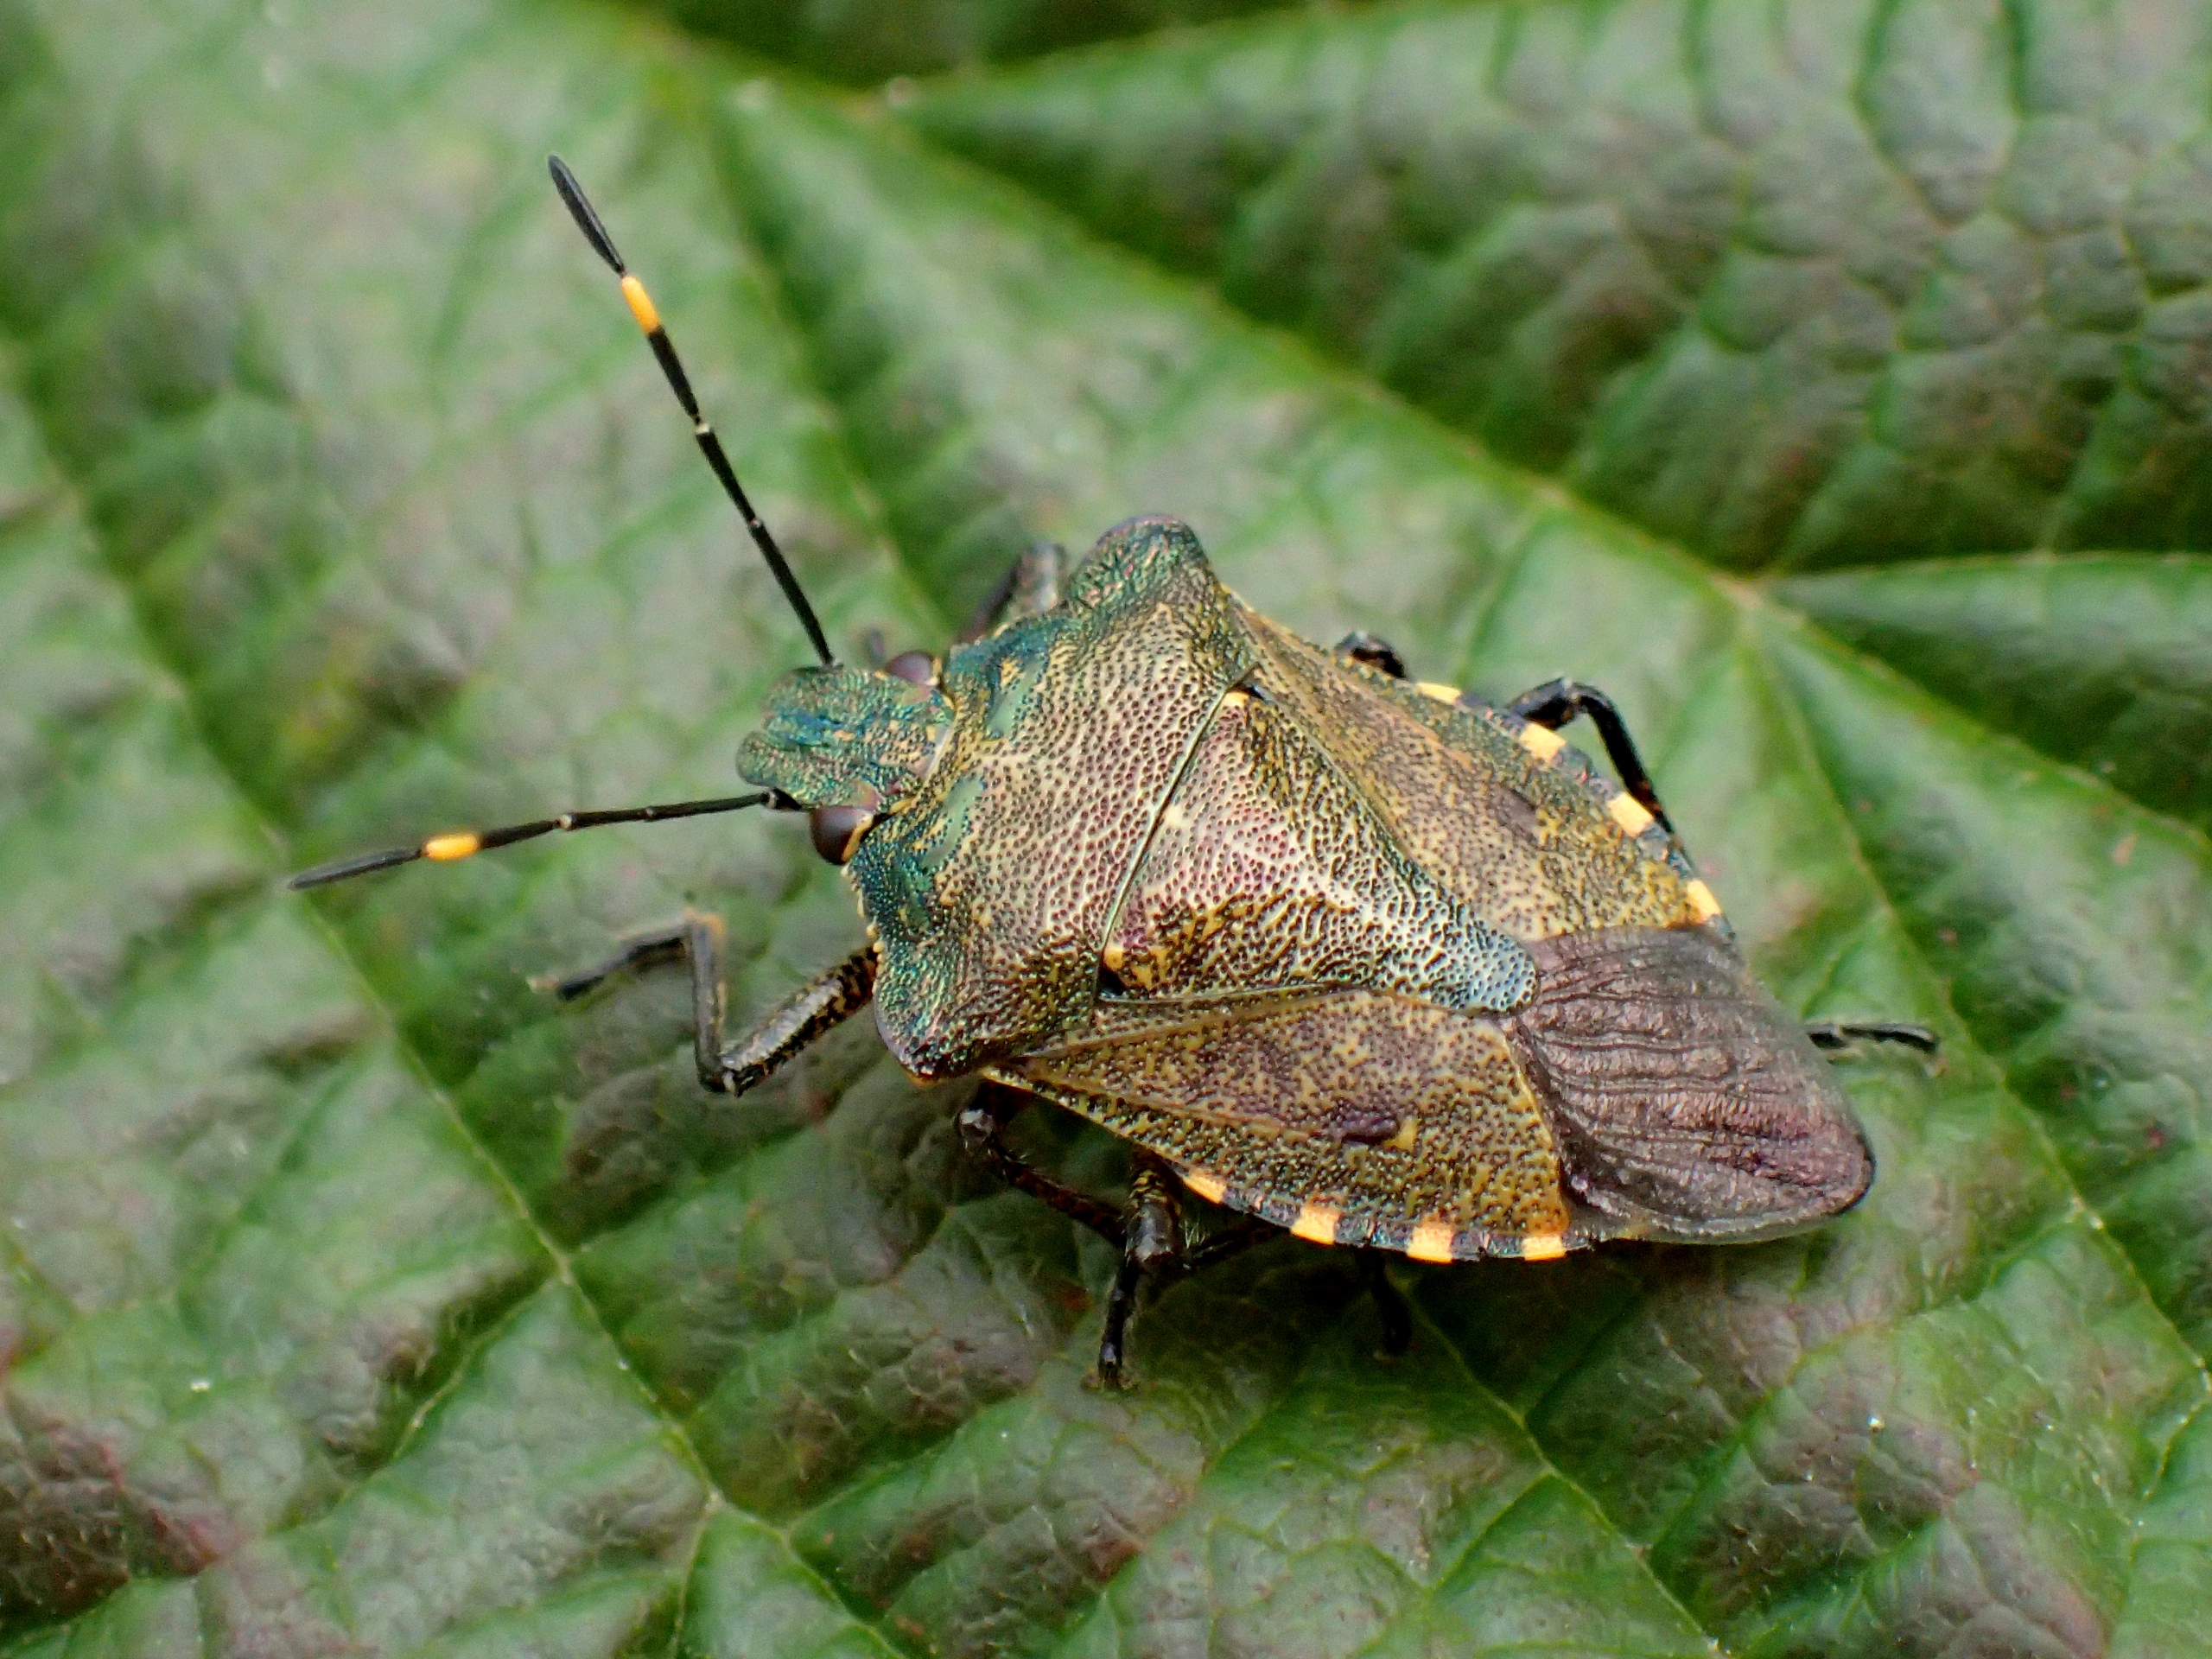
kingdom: Animalia
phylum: Arthropoda
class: Insecta
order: Hemiptera
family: Pentatomidae
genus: Troilus
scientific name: Troilus luridus
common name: Skovbredtæge
